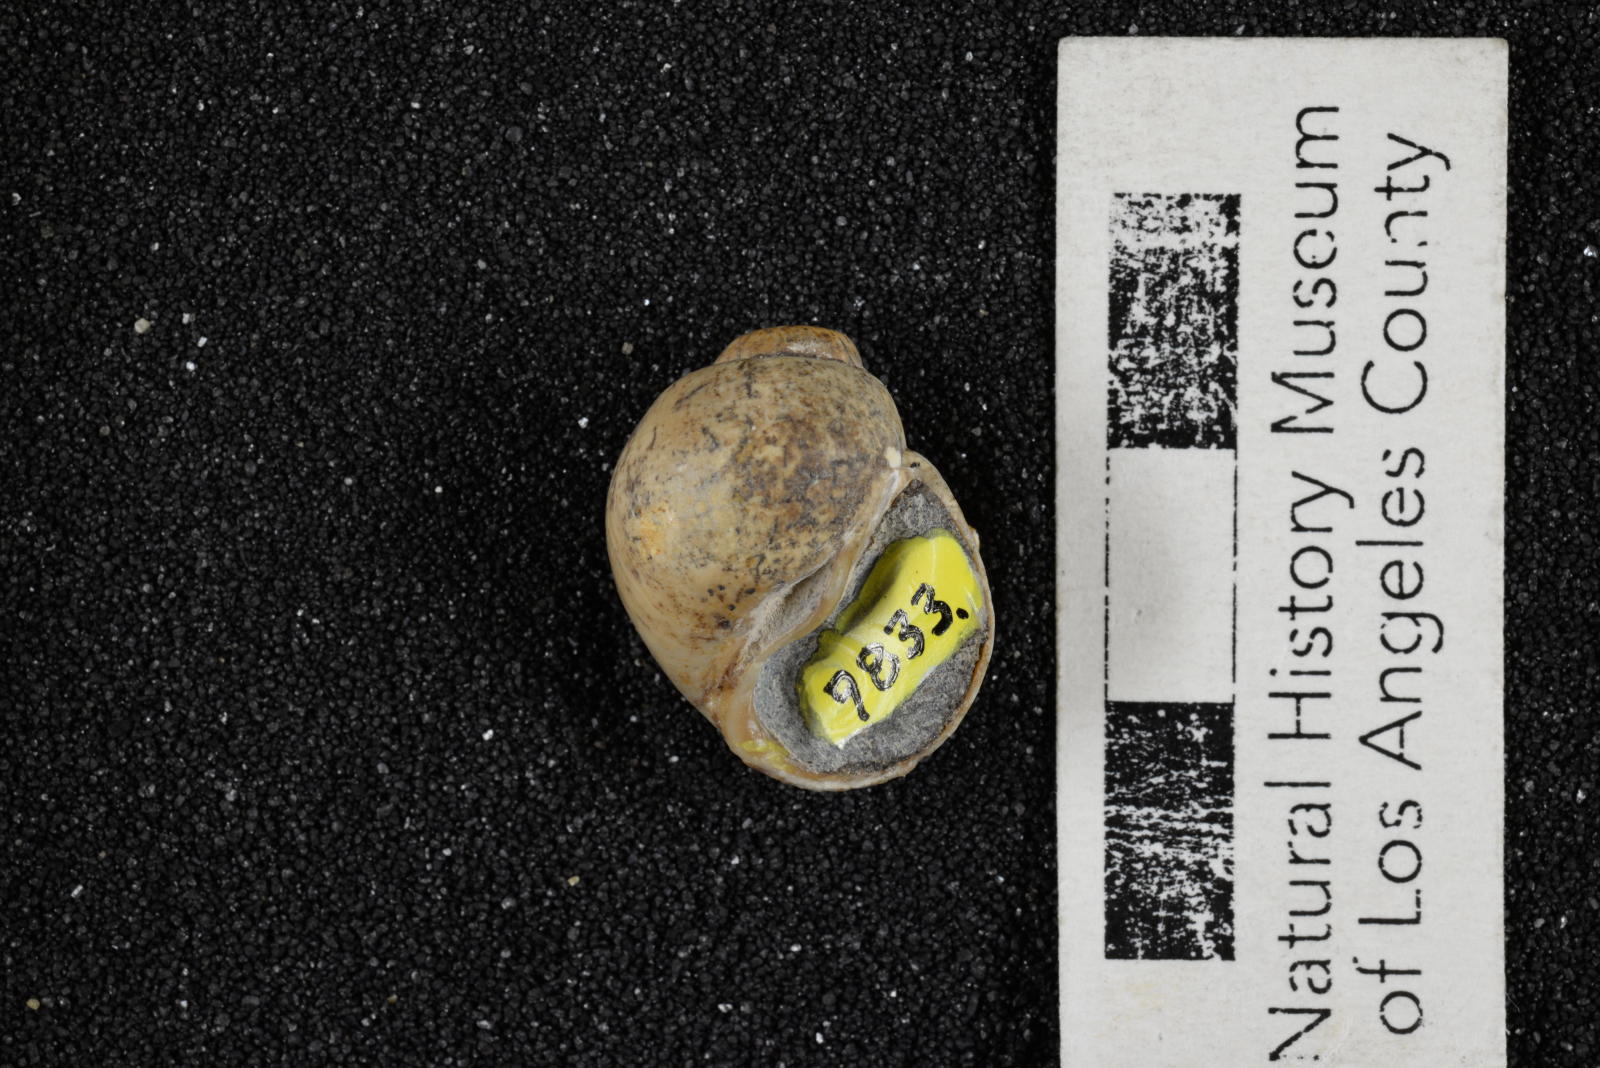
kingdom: Animalia
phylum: Mollusca
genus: Ampullina
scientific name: Ampullina
